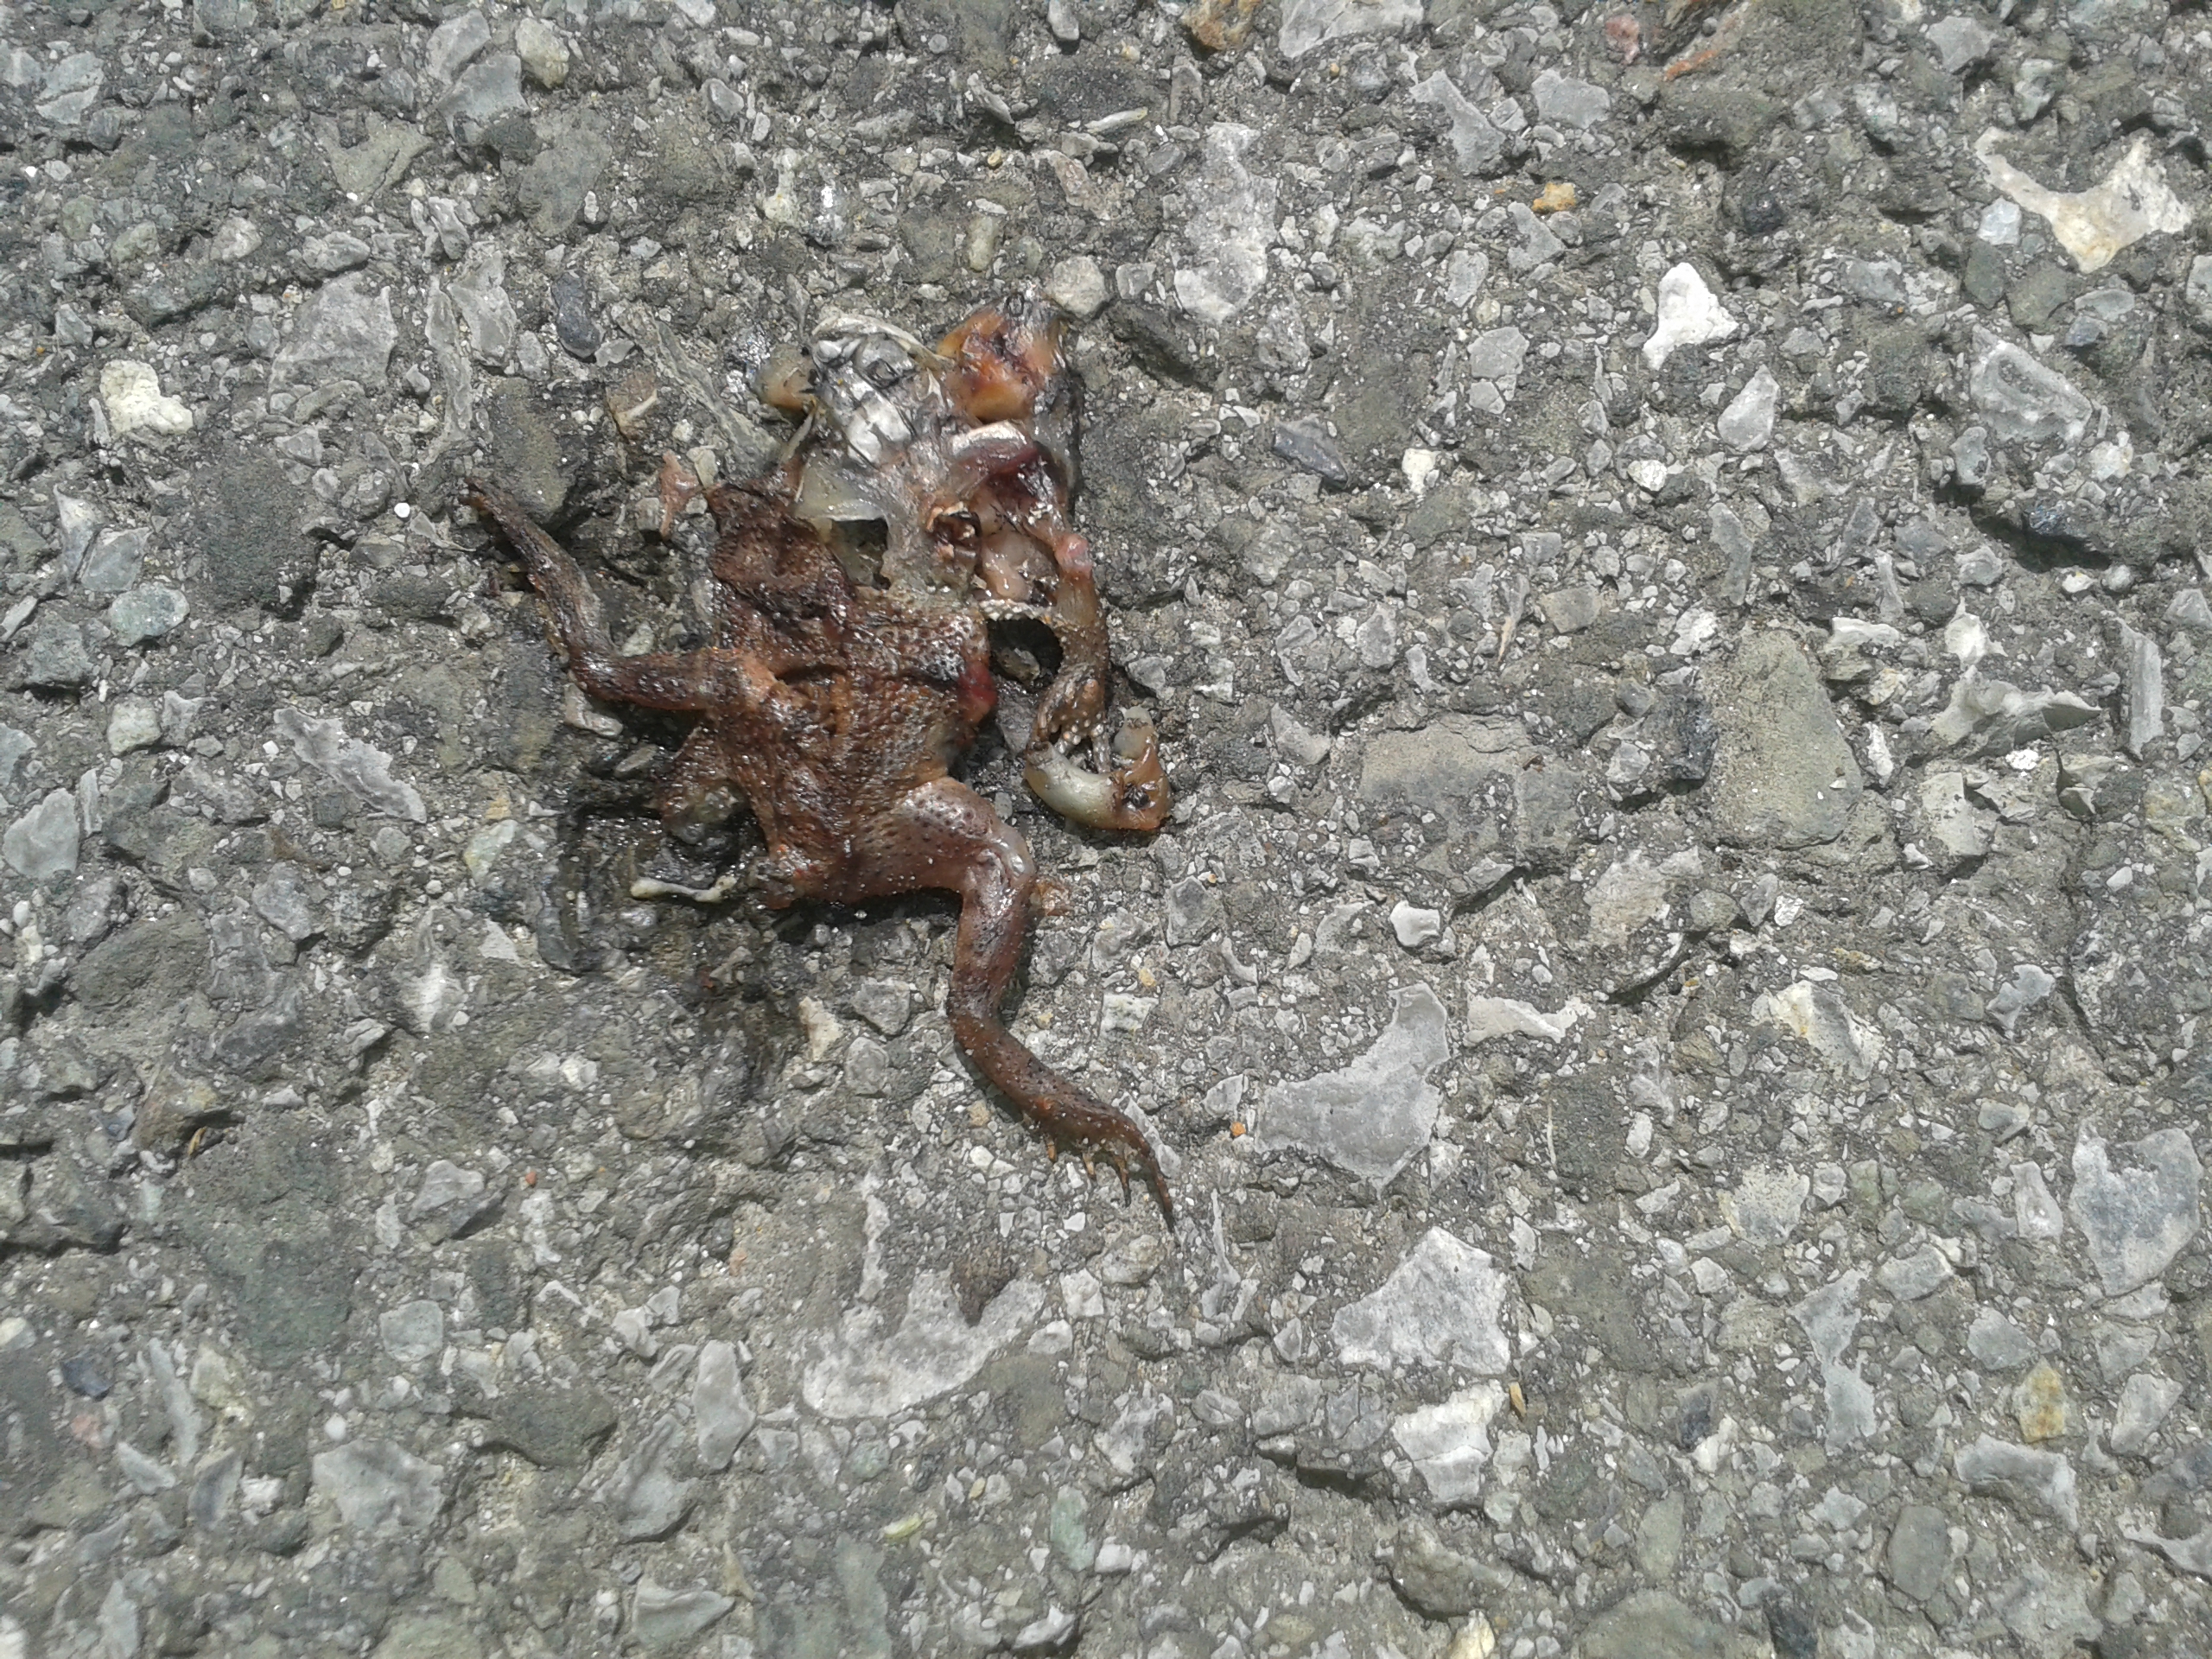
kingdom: Animalia
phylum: Chordata
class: Amphibia
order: Anura
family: Bufonidae
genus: Bufo
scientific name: Bufo bufo
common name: Common toad
